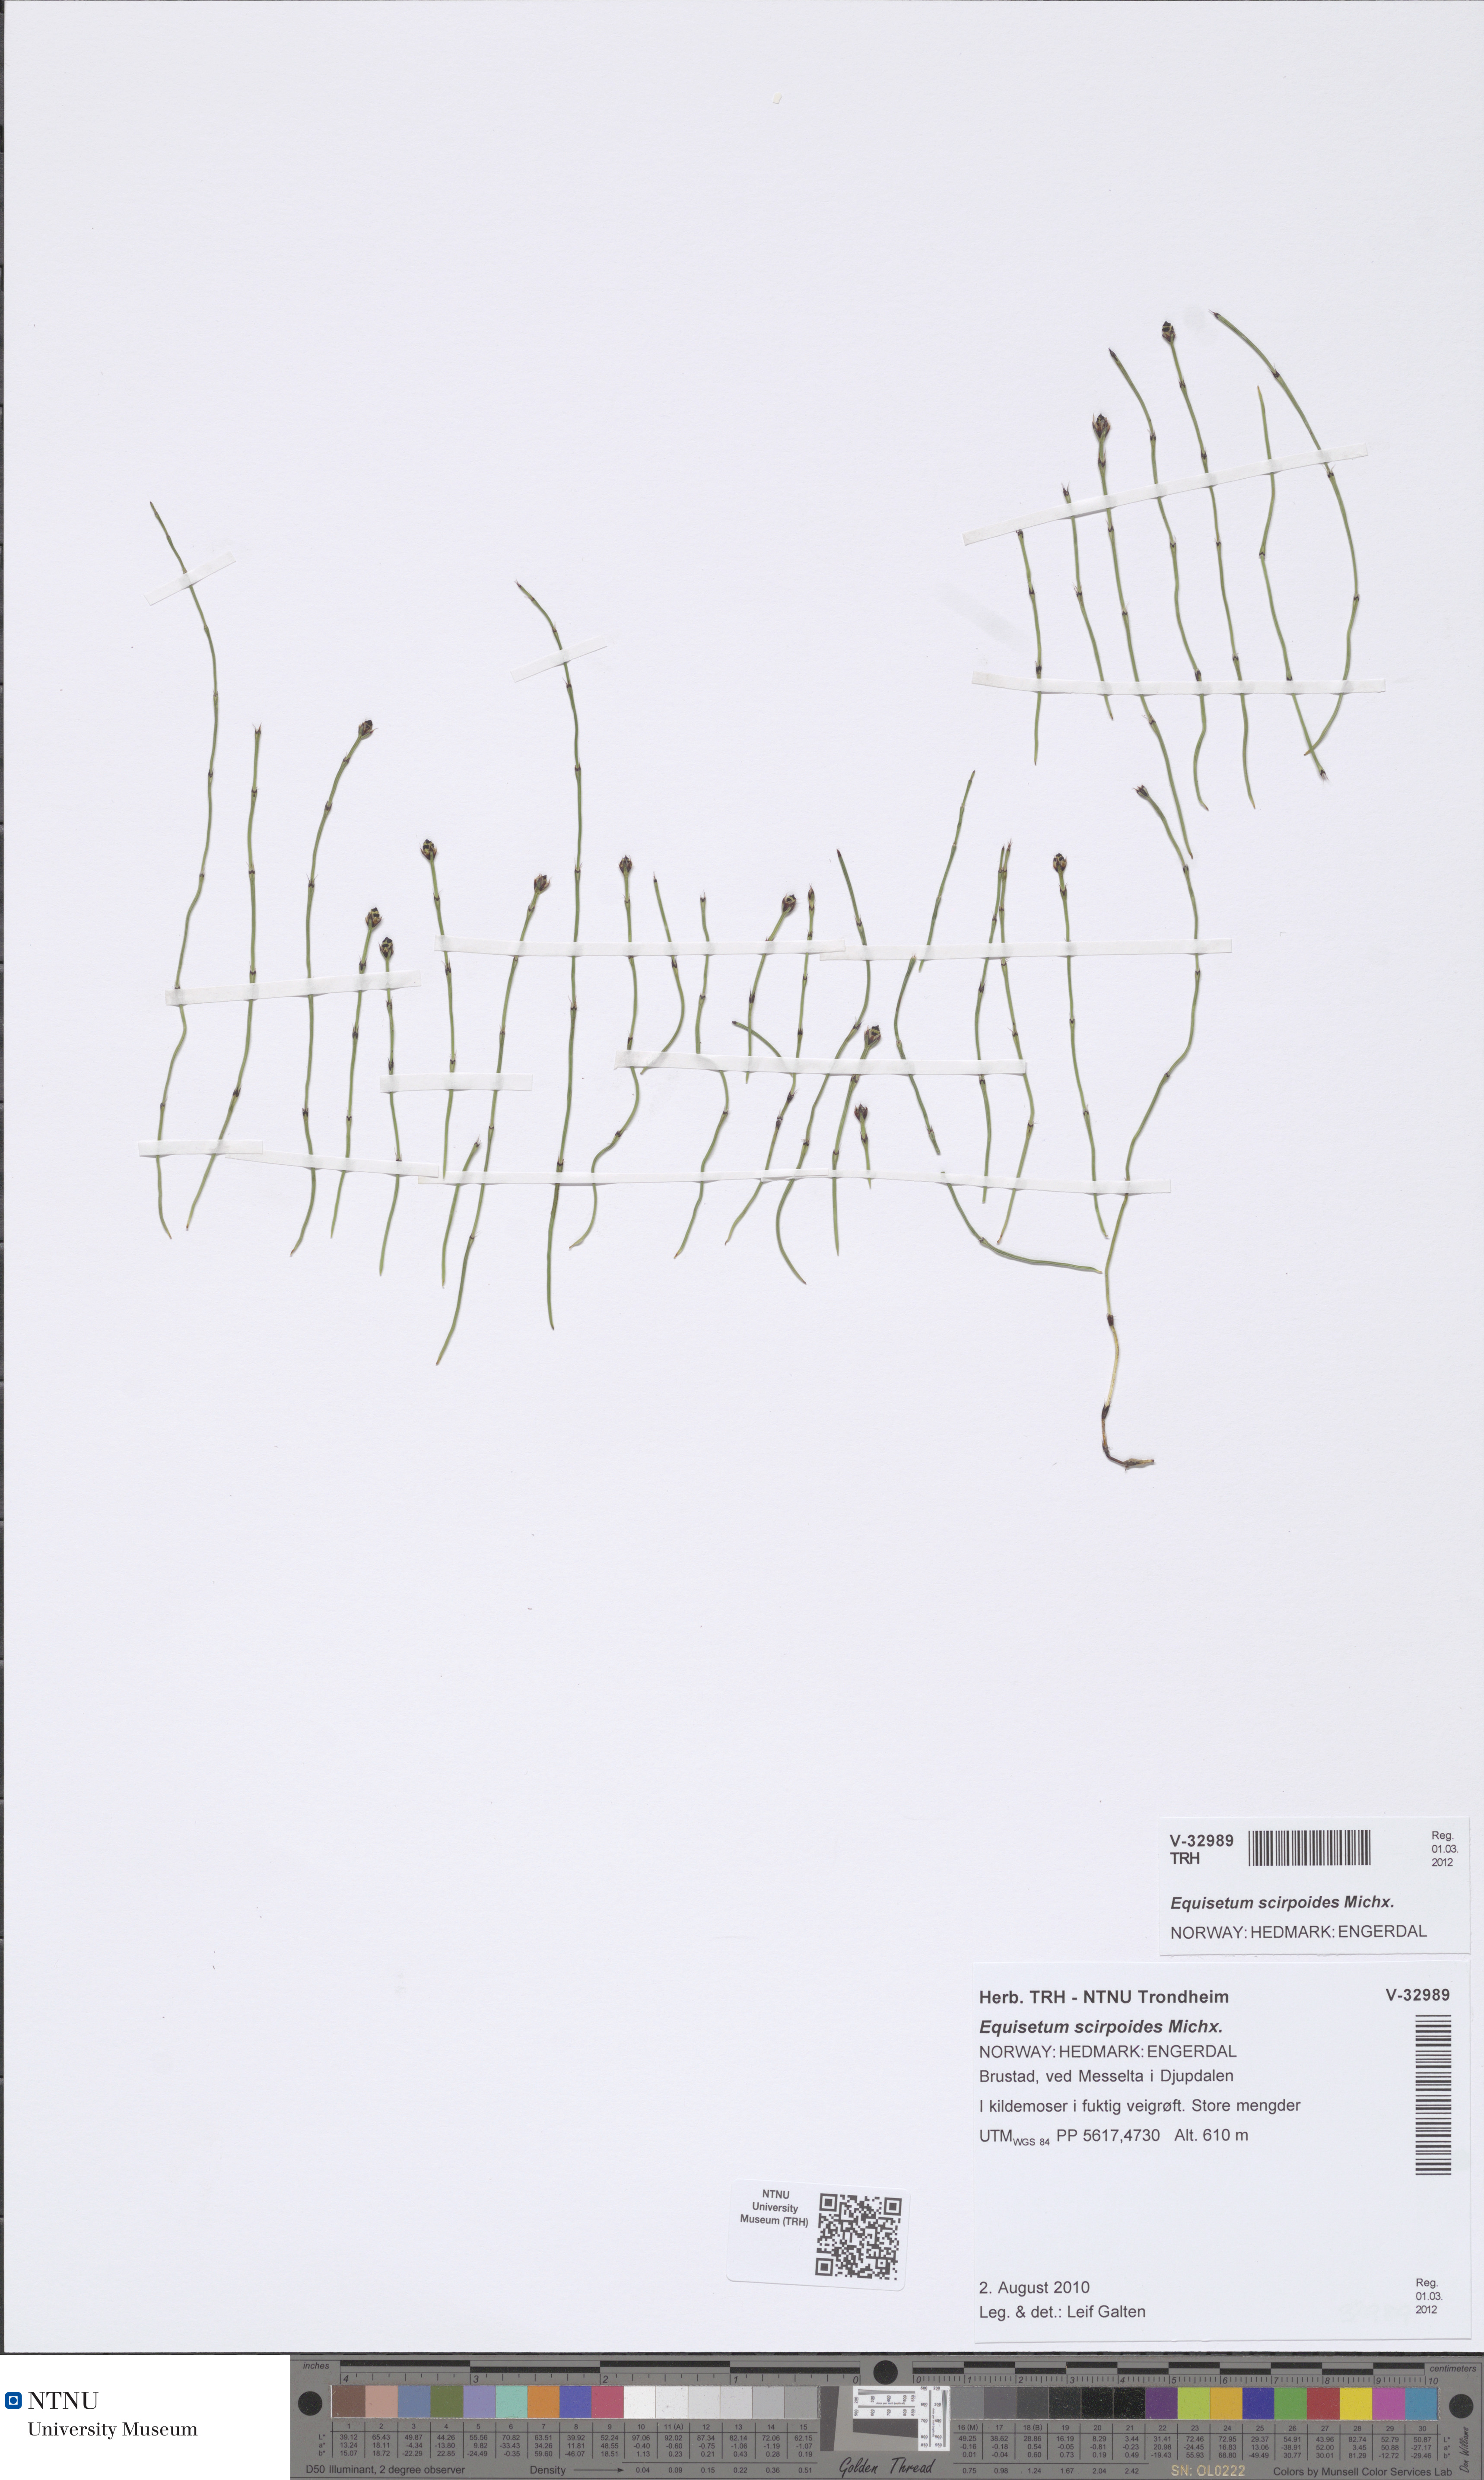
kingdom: Plantae
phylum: Tracheophyta
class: Polypodiopsida
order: Equisetales
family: Equisetaceae
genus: Equisetum
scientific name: Equisetum scirpoides
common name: Delicate horsetail
